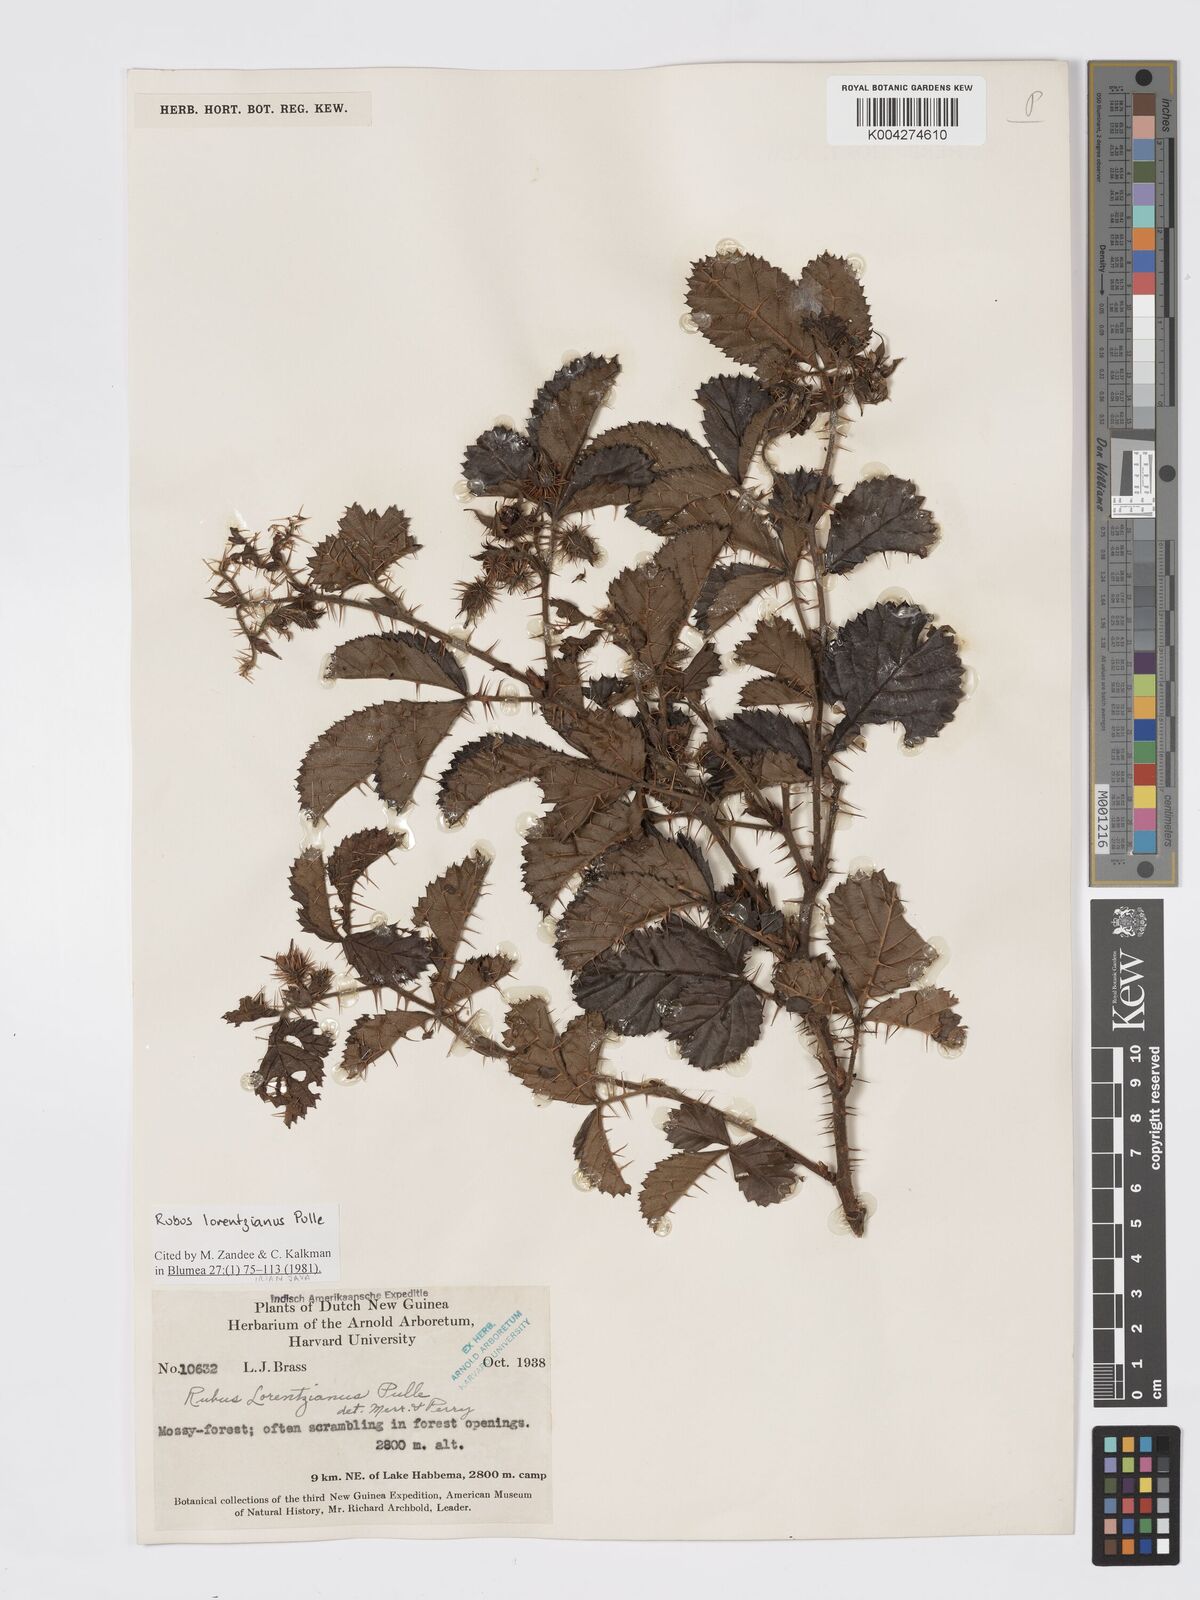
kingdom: Plantae
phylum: Tracheophyta
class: Magnoliopsida
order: Rosales
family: Rosaceae
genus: Rubus
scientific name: Rubus lorentzianus
